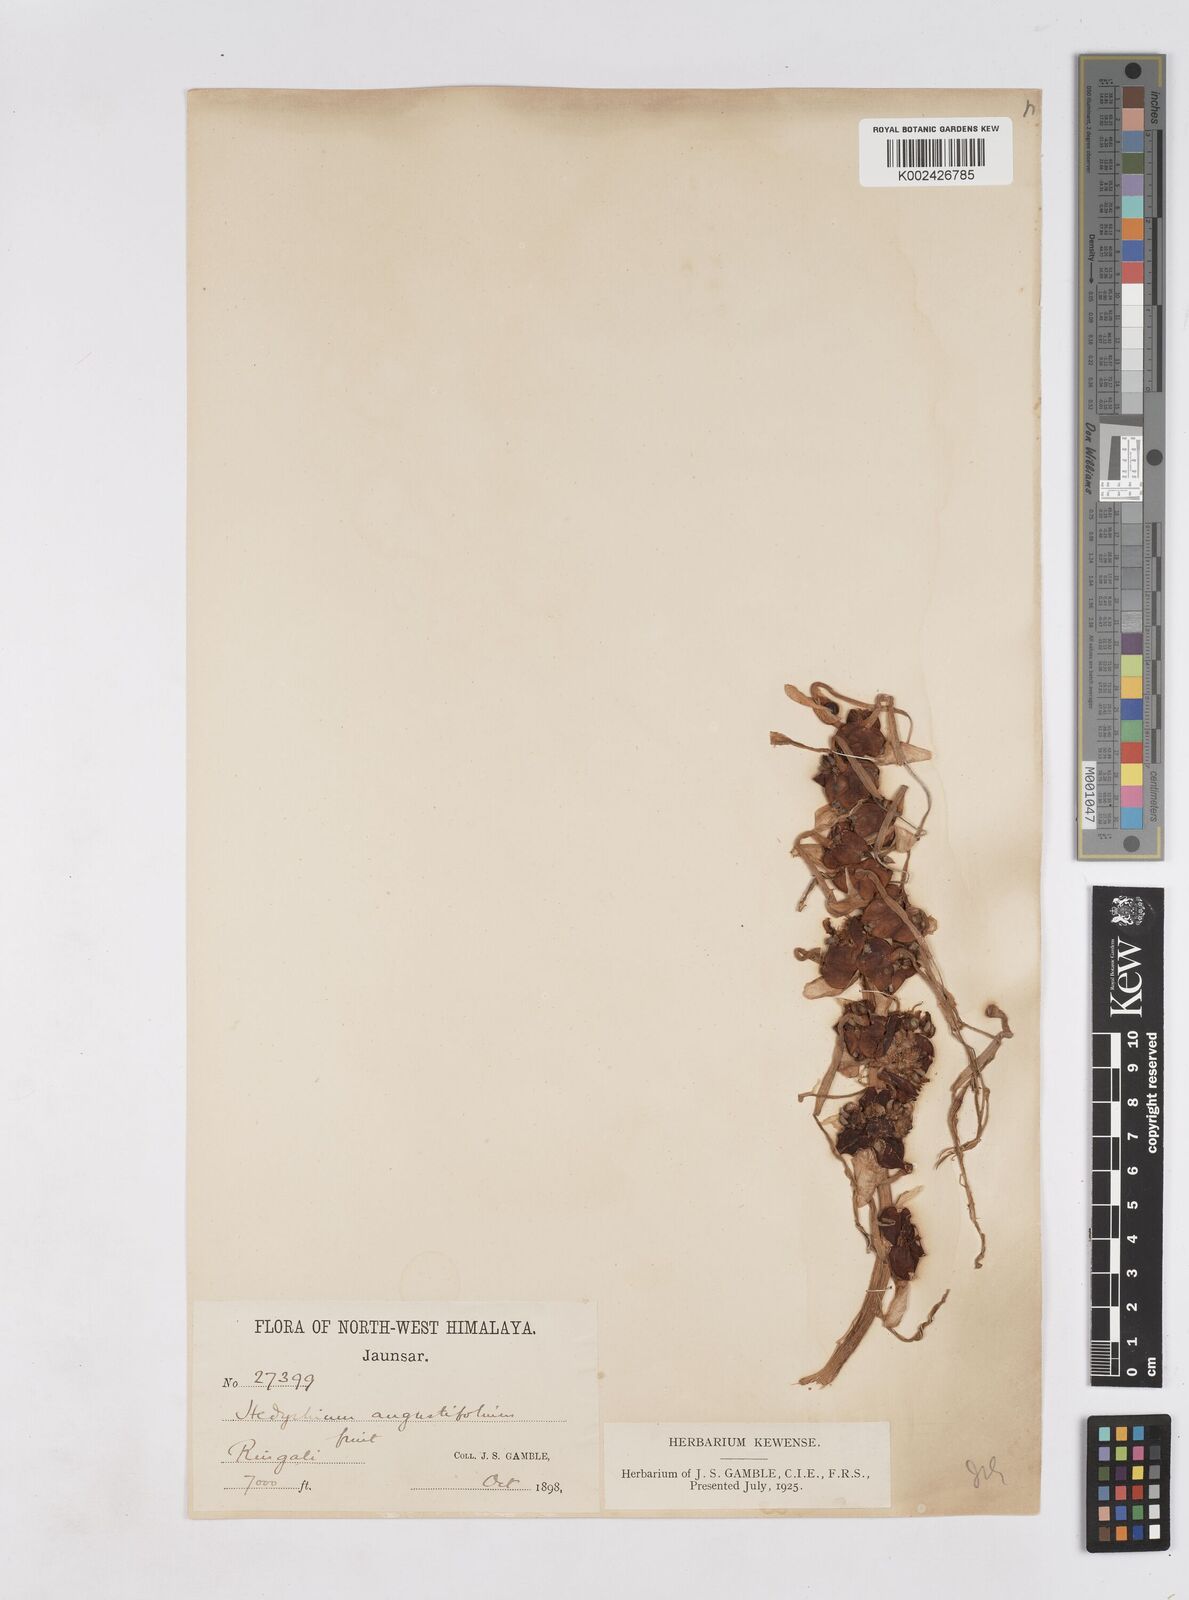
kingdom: Plantae
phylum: Tracheophyta
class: Liliopsida
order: Zingiberales
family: Zingiberaceae
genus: Hedychium
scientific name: Hedychium coccineum
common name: Red ginger-lily
